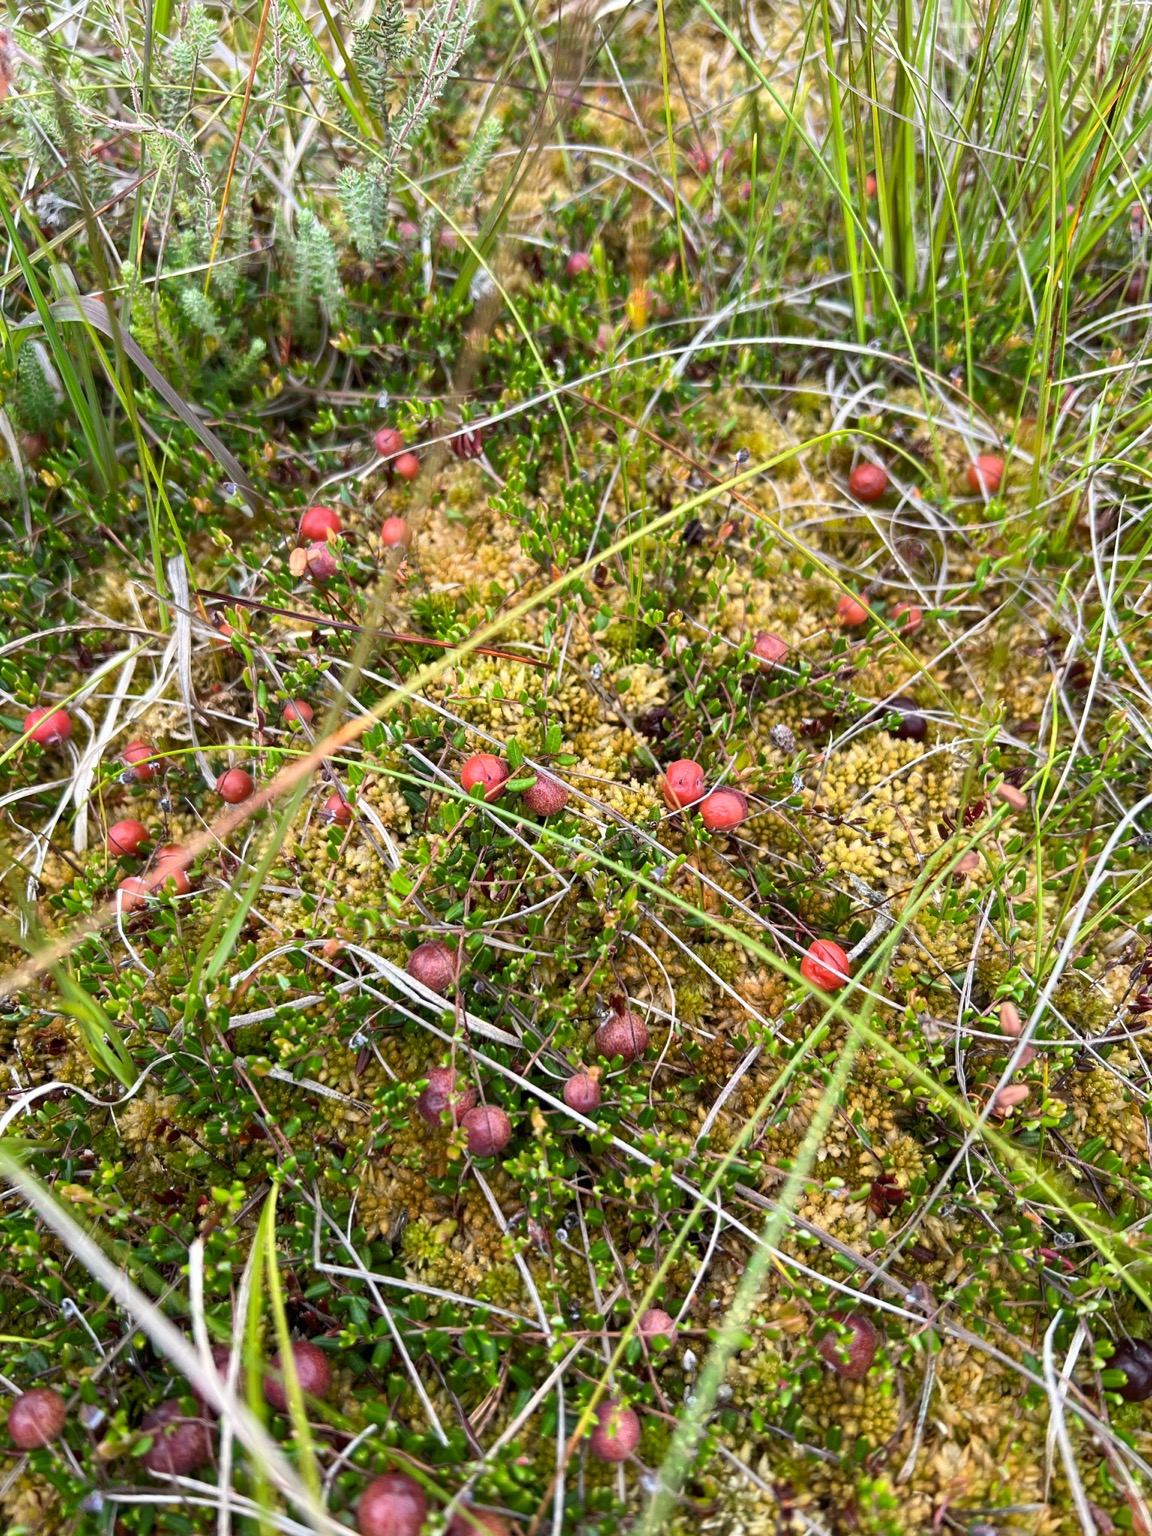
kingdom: Plantae
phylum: Tracheophyta
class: Magnoliopsida
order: Ericales
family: Ericaceae
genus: Vaccinium
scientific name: Vaccinium oxycoccos
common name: Tranebær
